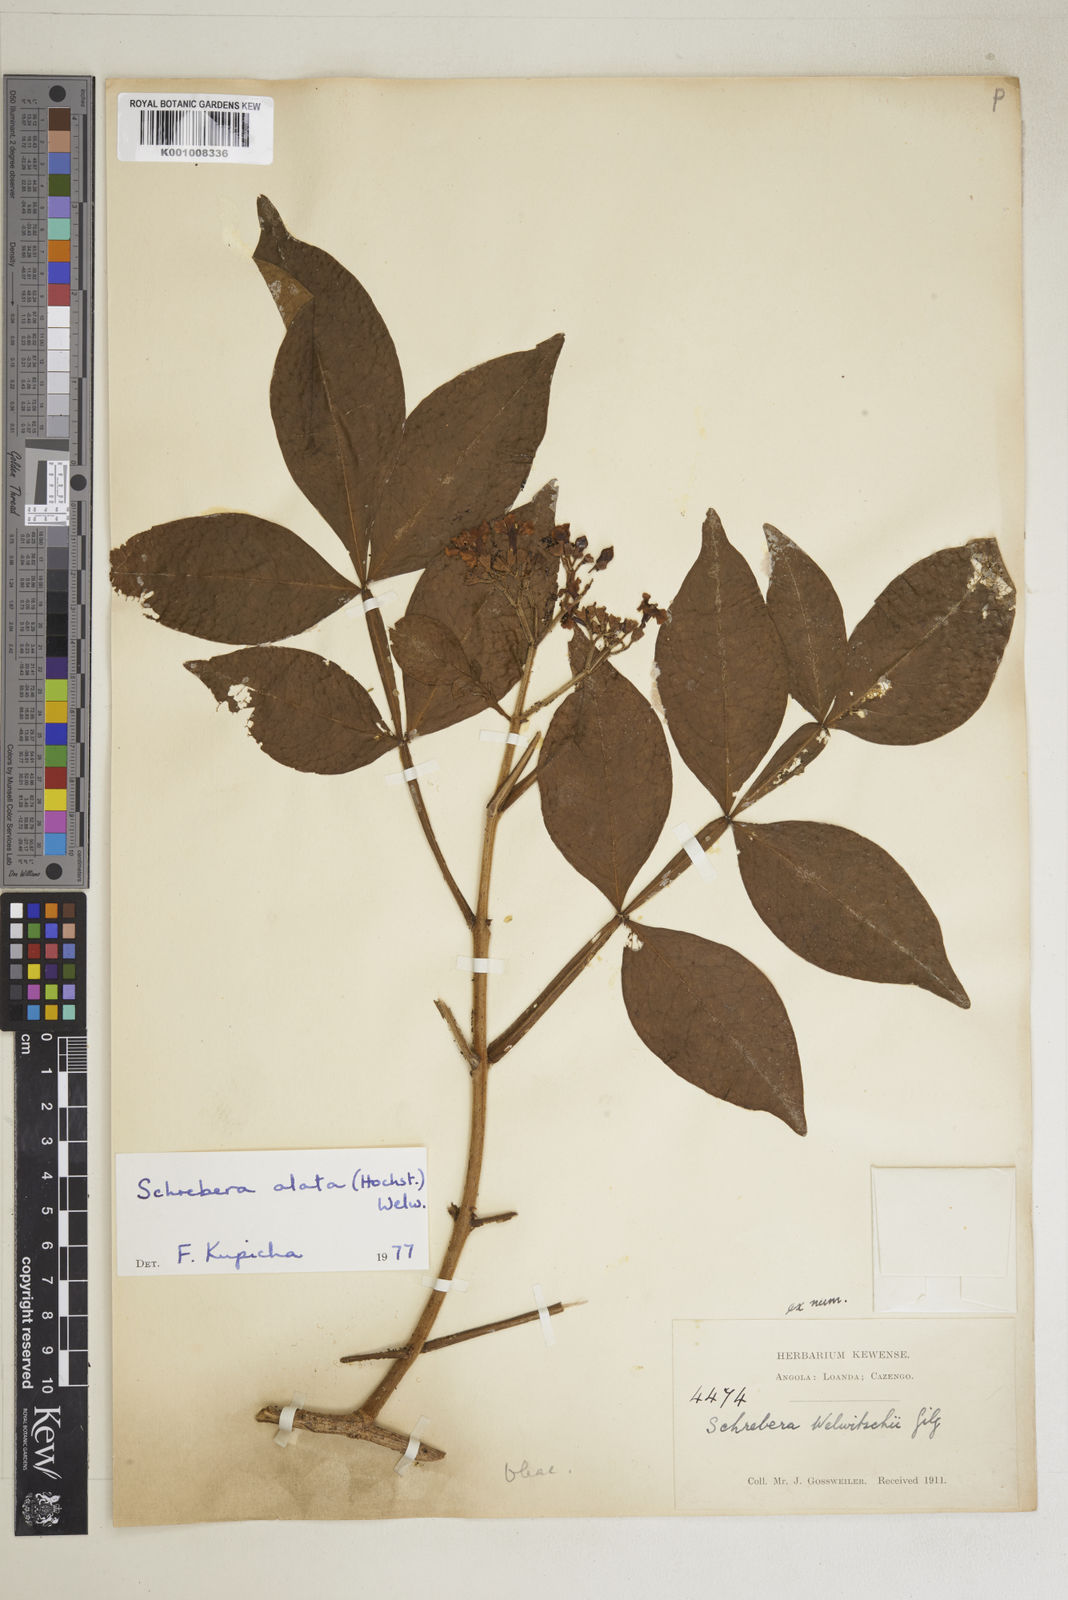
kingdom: Plantae
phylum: Tracheophyta
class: Magnoliopsida
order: Lamiales
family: Oleaceae
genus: Schrebera
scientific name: Schrebera alata
